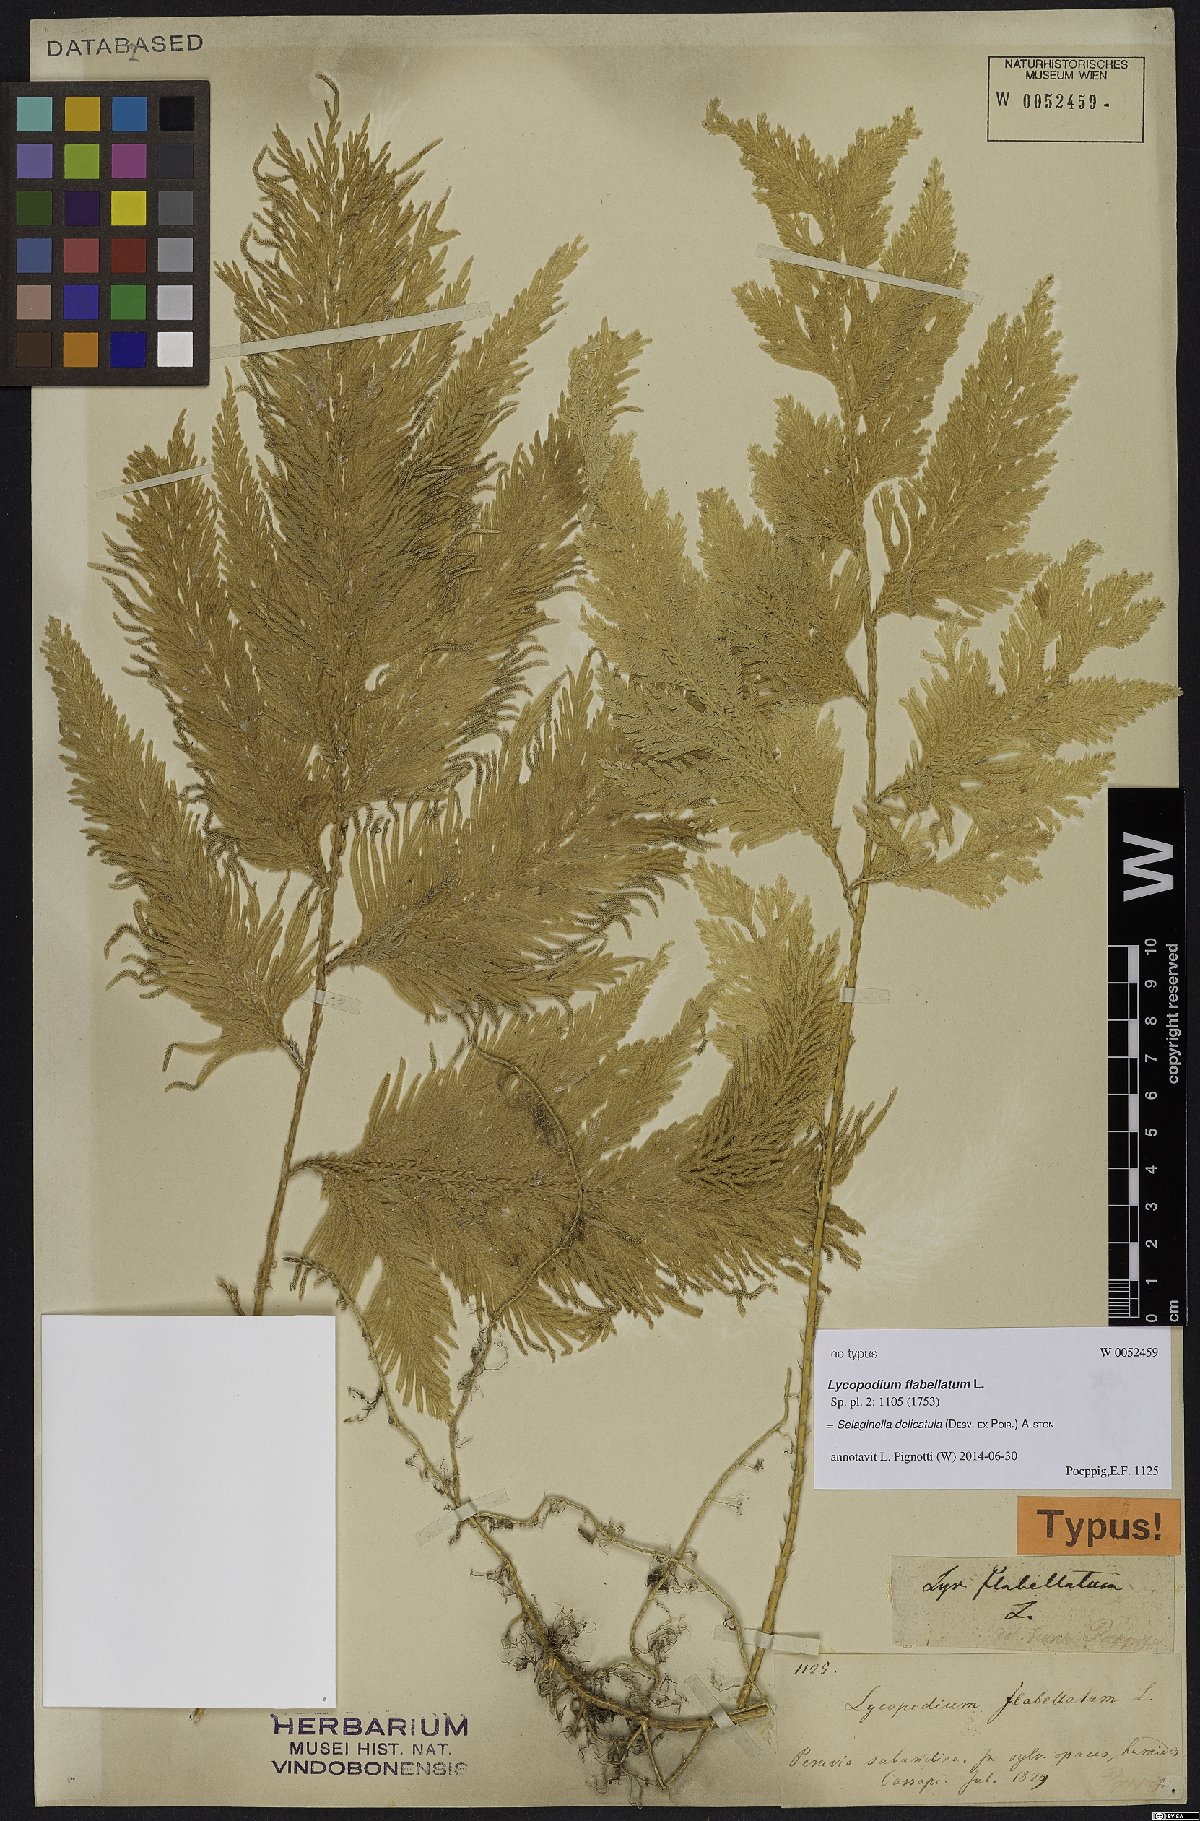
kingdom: Plantae
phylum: Tracheophyta
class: Lycopodiopsida
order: Selaginellales
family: Selaginellaceae
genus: Selaginella
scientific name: Selaginella delicatula
